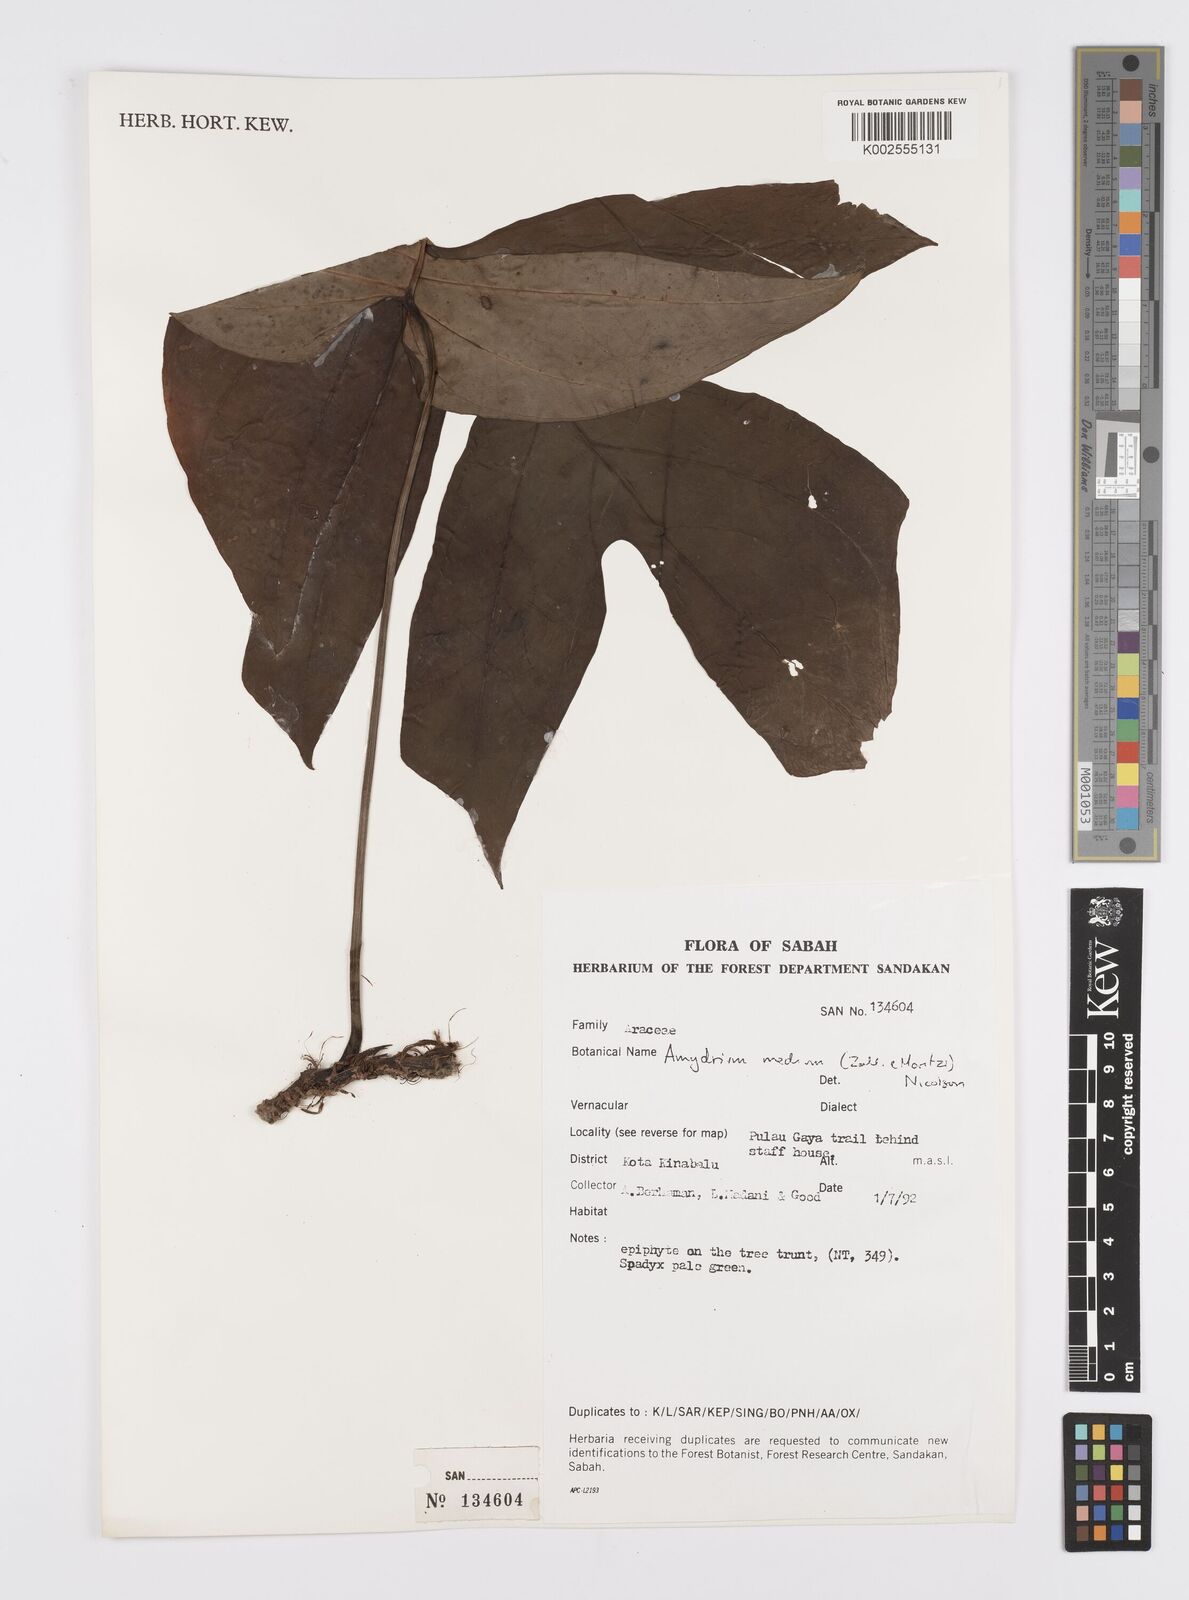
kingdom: Plantae
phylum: Tracheophyta
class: Liliopsida
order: Alismatales
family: Araceae
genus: Amydrium
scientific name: Amydrium medium
